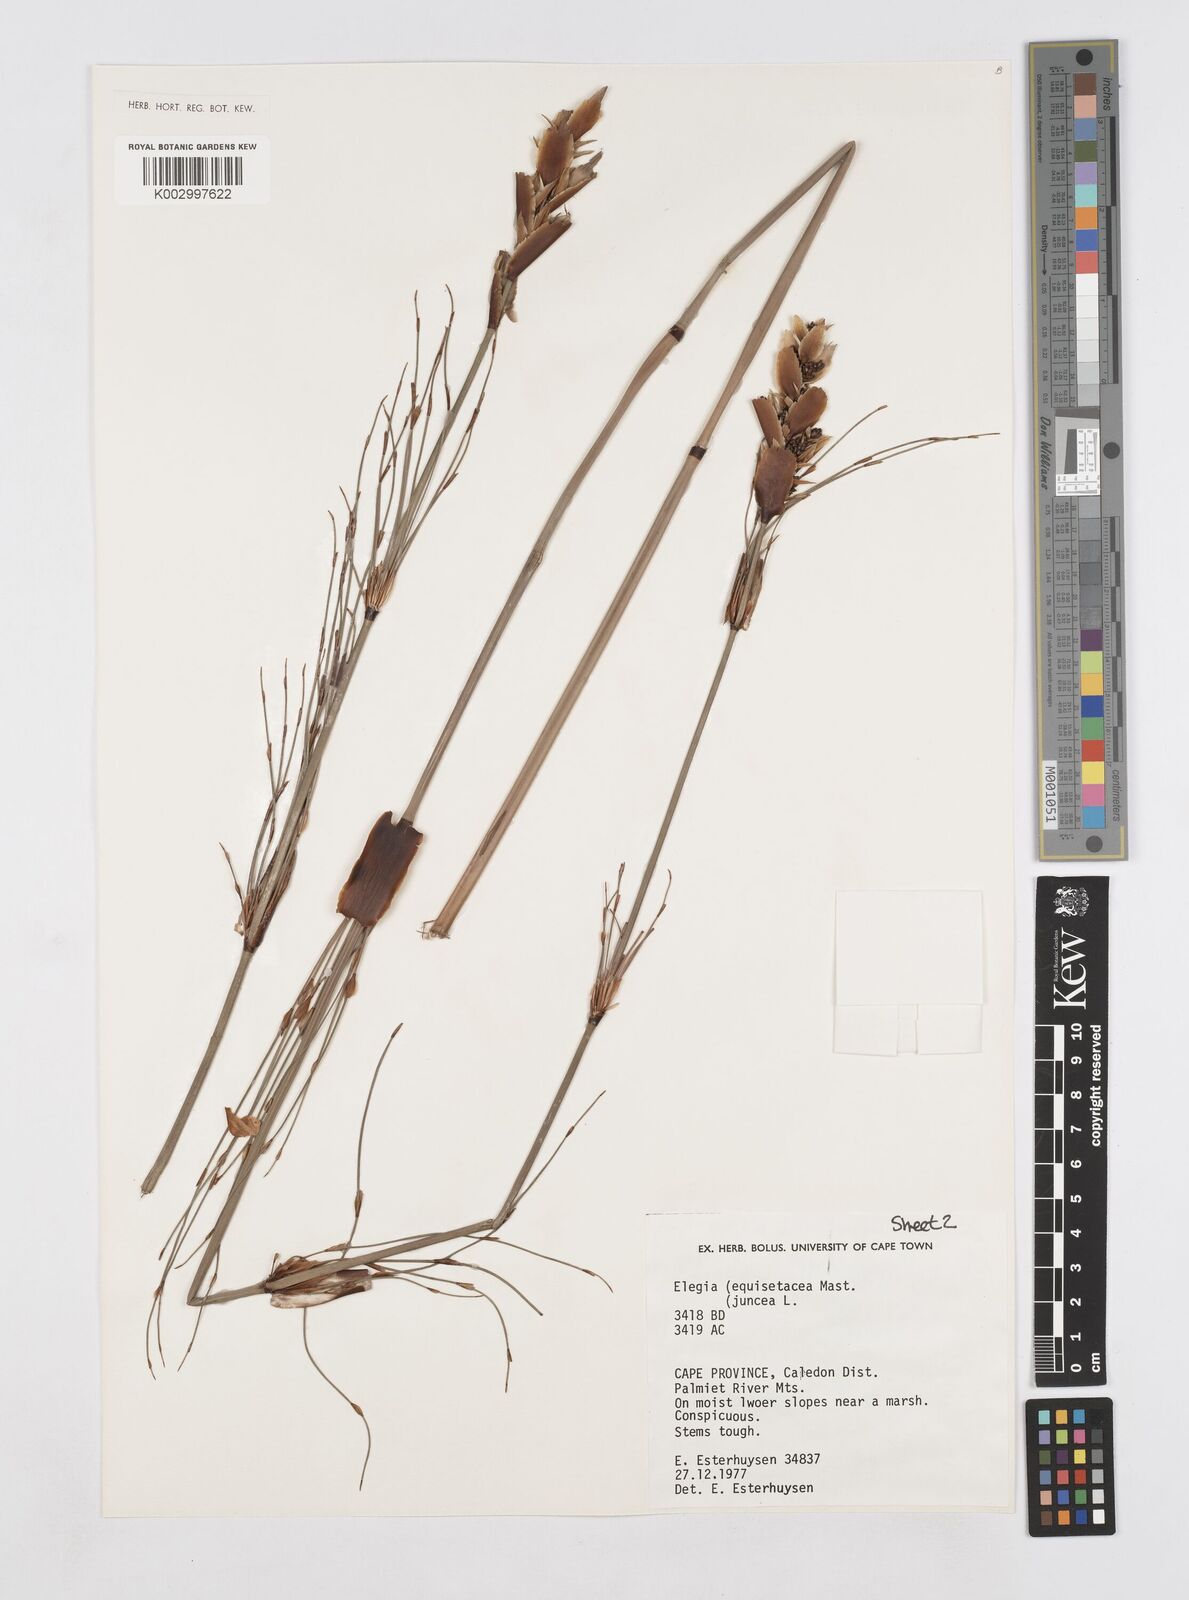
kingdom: Plantae
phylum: Tracheophyta
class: Liliopsida
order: Poales
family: Restionaceae
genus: Elegia
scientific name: Elegia equisetacea
